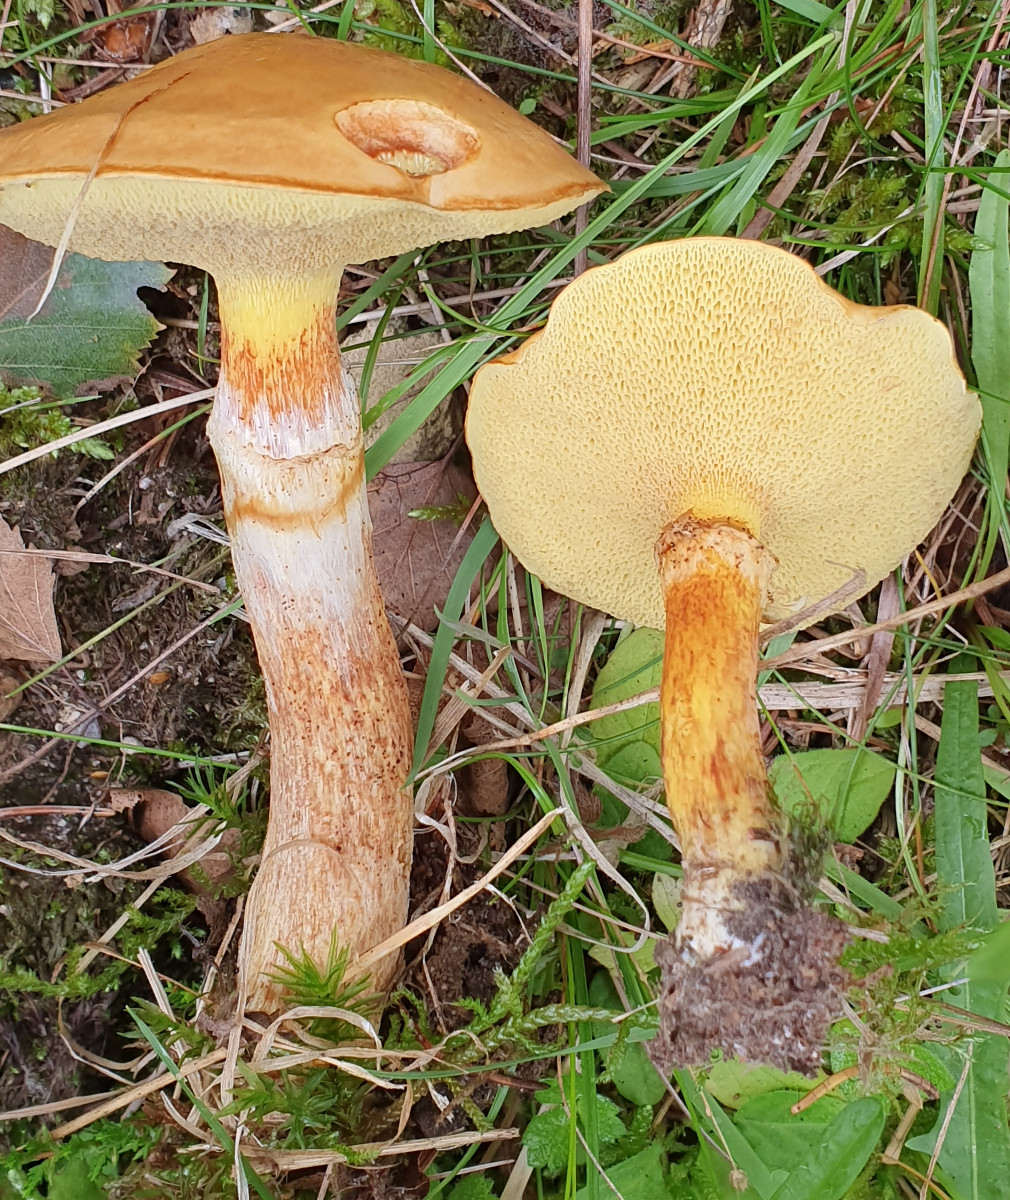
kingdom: Fungi
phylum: Basidiomycota
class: Agaricomycetes
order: Boletales
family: Suillaceae
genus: Suillus
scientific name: Suillus grevillei
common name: lærke-slimrørhat
